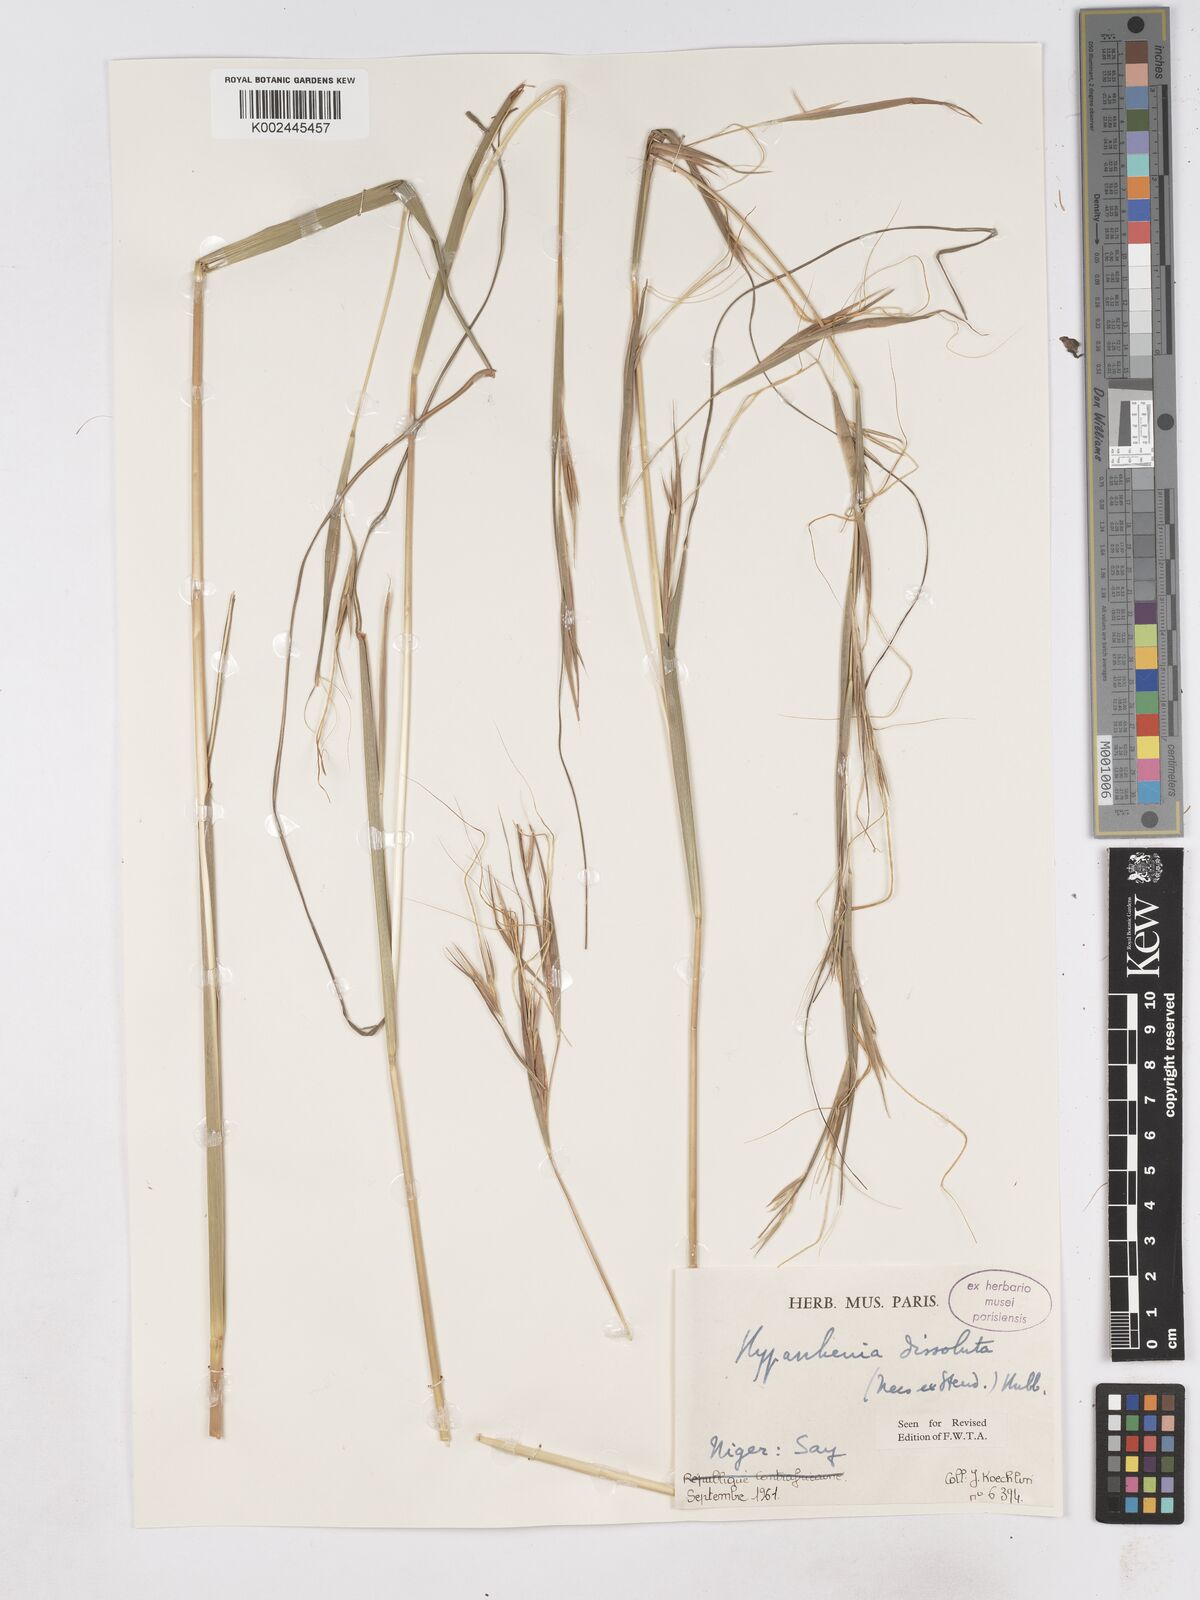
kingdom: Plantae
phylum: Tracheophyta
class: Liliopsida
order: Poales
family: Poaceae
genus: Hyperthelia
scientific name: Hyperthelia dissoluta
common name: Yellow thatching grass
